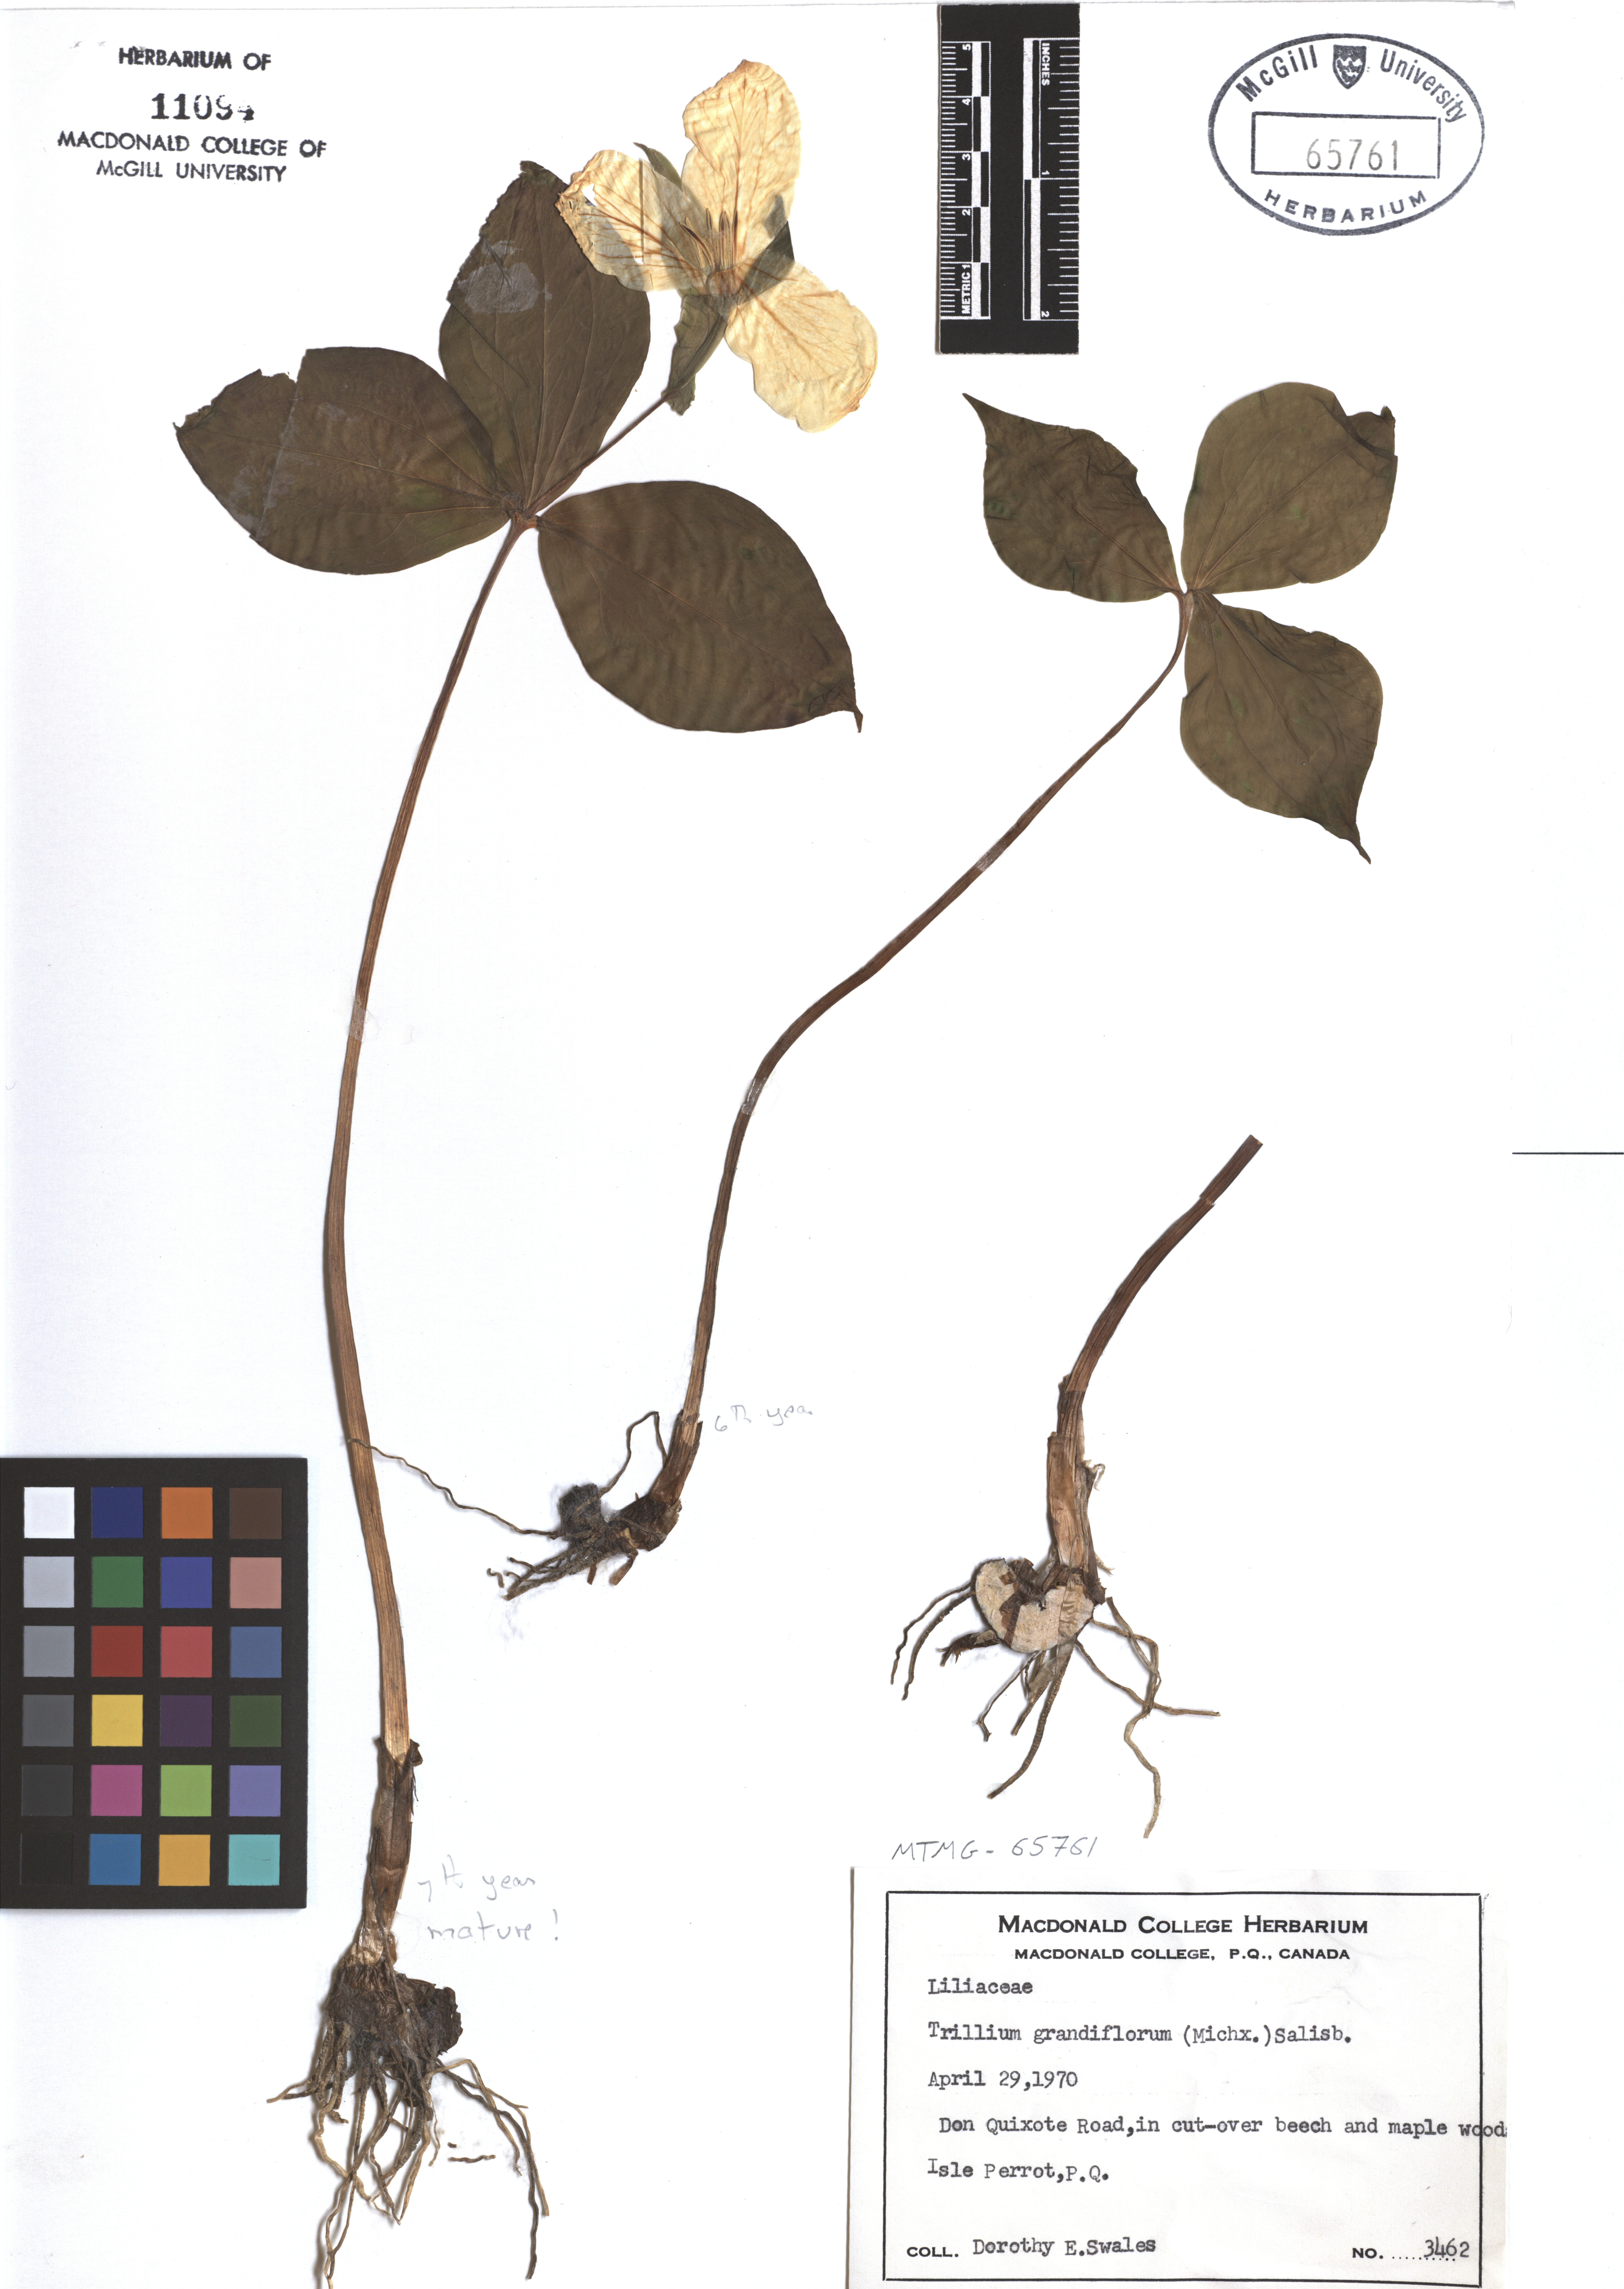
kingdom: Plantae
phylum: Tracheophyta
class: Liliopsida
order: Liliales
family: Melanthiaceae
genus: Trillium
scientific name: Trillium grandiflorum
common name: Great white trillium
